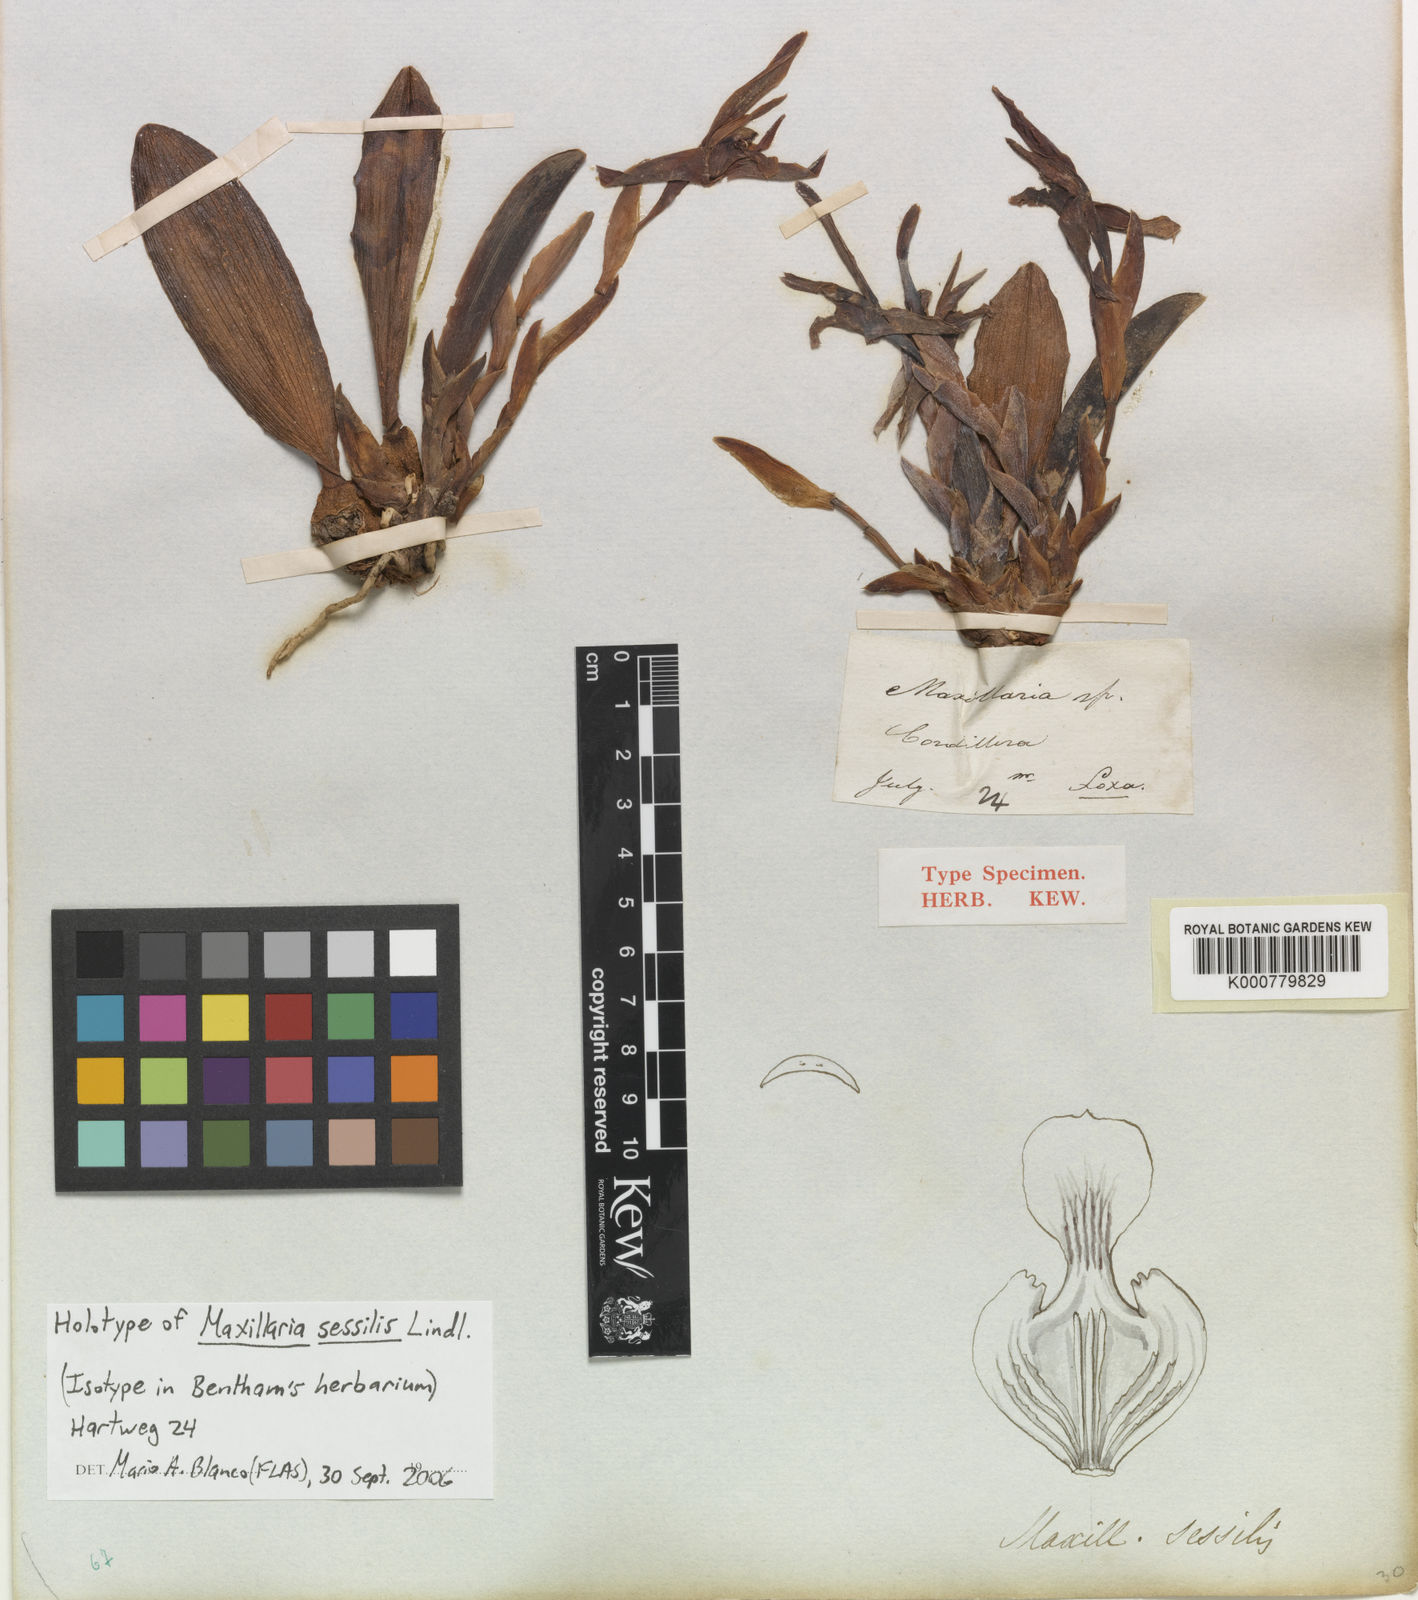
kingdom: Plantae
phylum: Tracheophyta
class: Liliopsida
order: Asparagales
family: Orchidaceae
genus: Maxillaria
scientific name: Maxillaria sessilis
